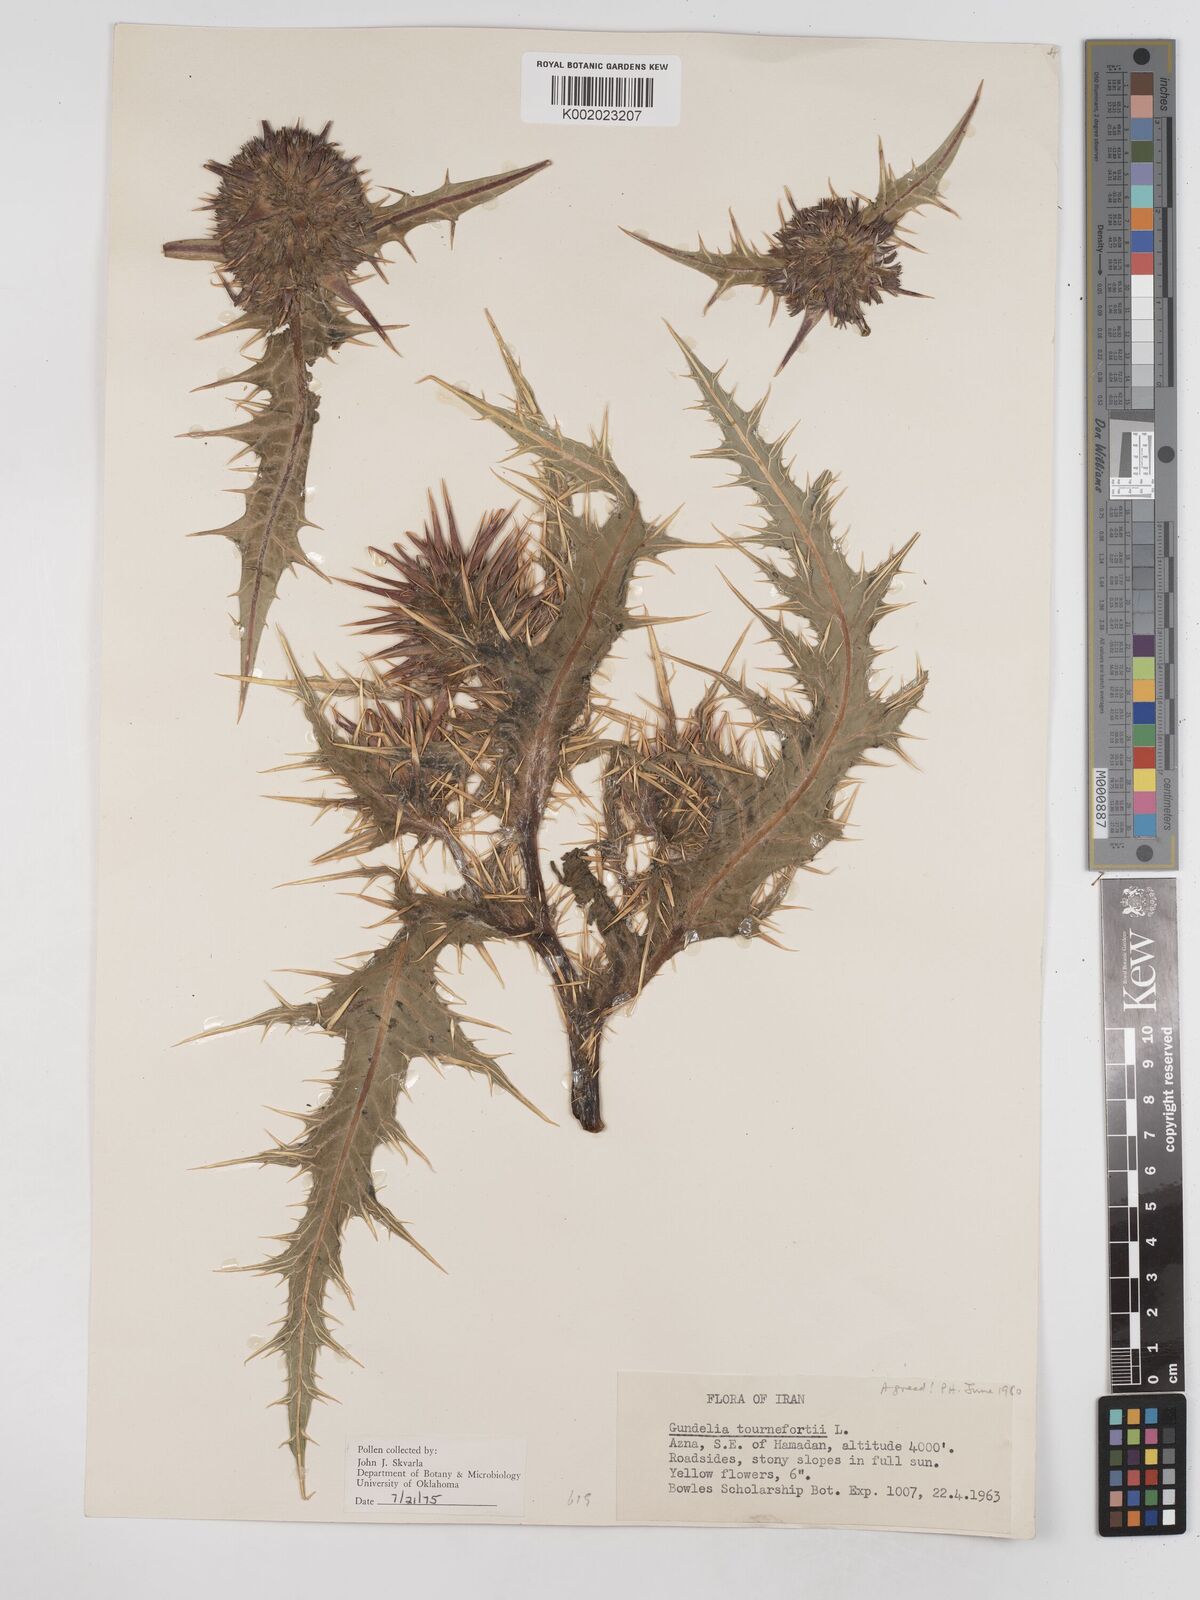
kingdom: Plantae
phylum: Tracheophyta
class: Magnoliopsida
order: Asterales
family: Asteraceae
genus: Gundelia
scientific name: Gundelia tournefortii
